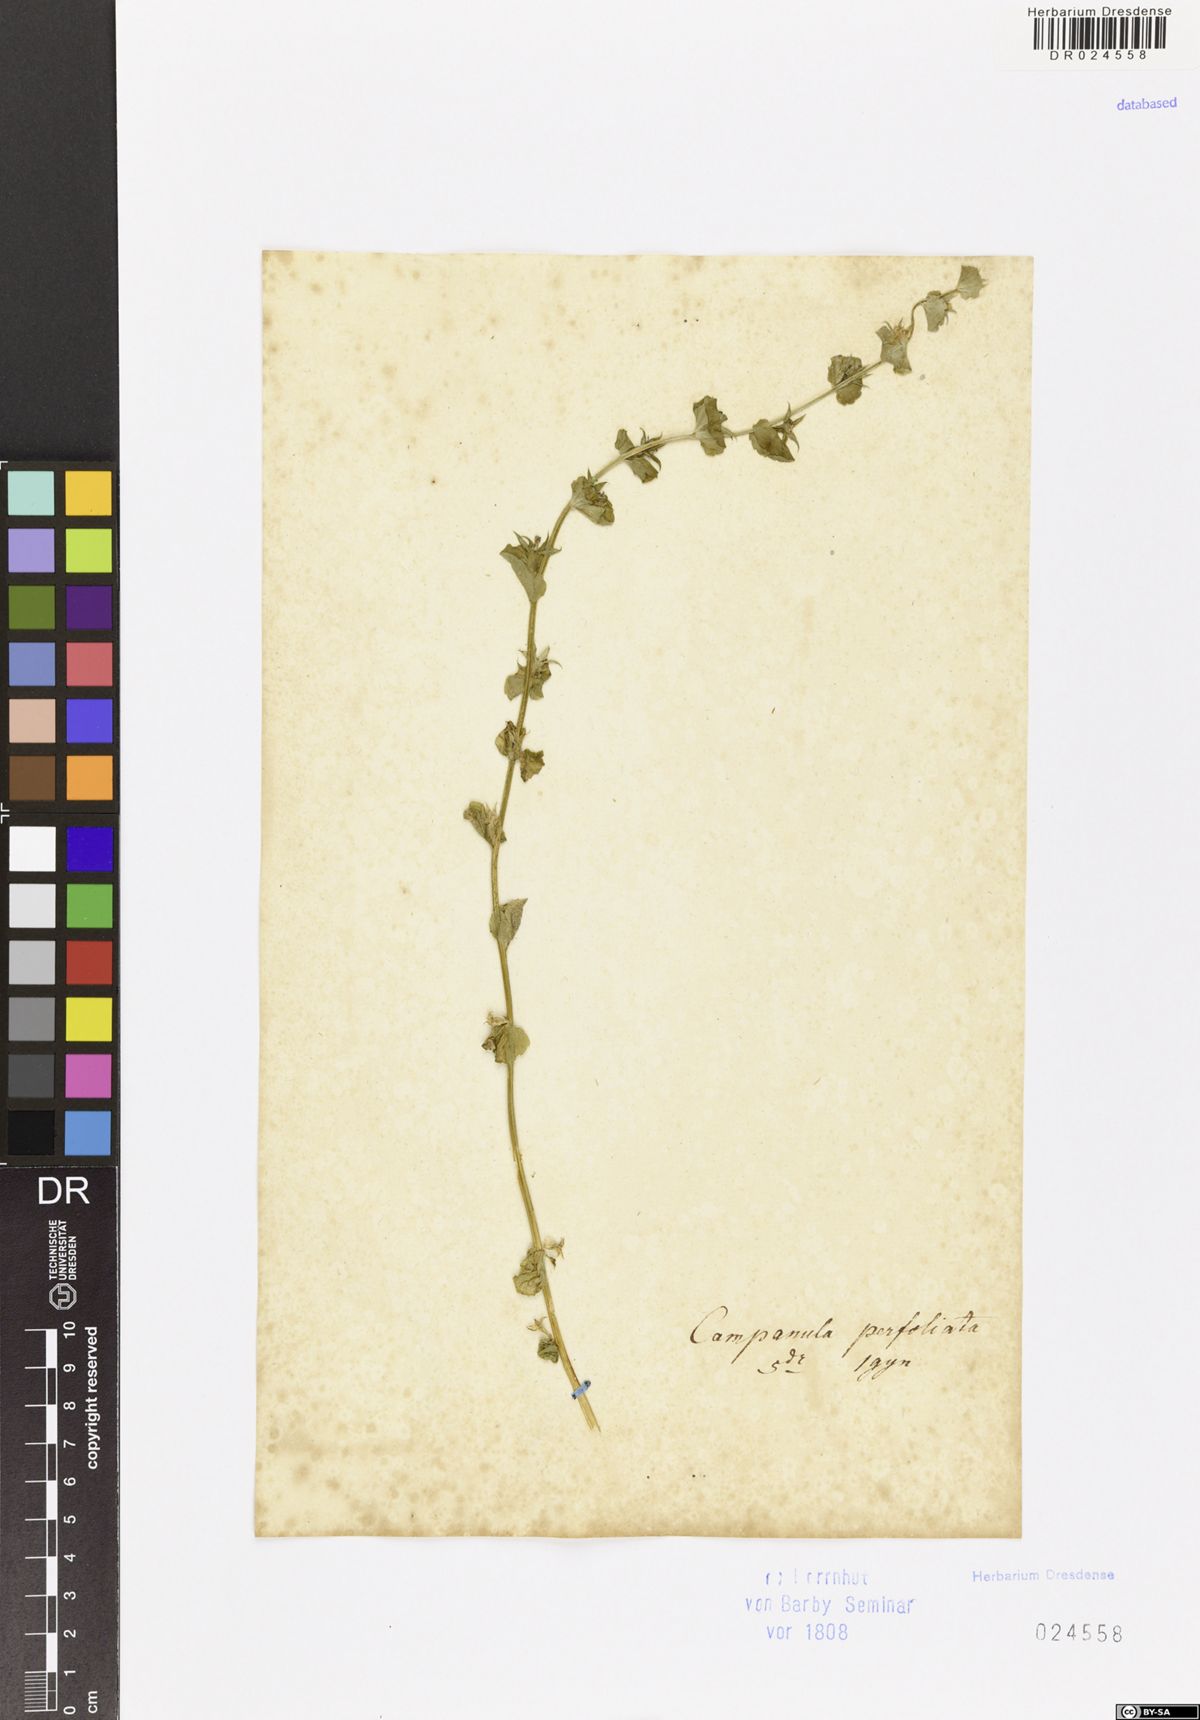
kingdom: Plantae
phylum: Tracheophyta
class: Magnoliopsida
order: Asterales
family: Campanulaceae
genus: Triodanis
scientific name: Triodanis perfoliata
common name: Clasping venus' looking-glass
